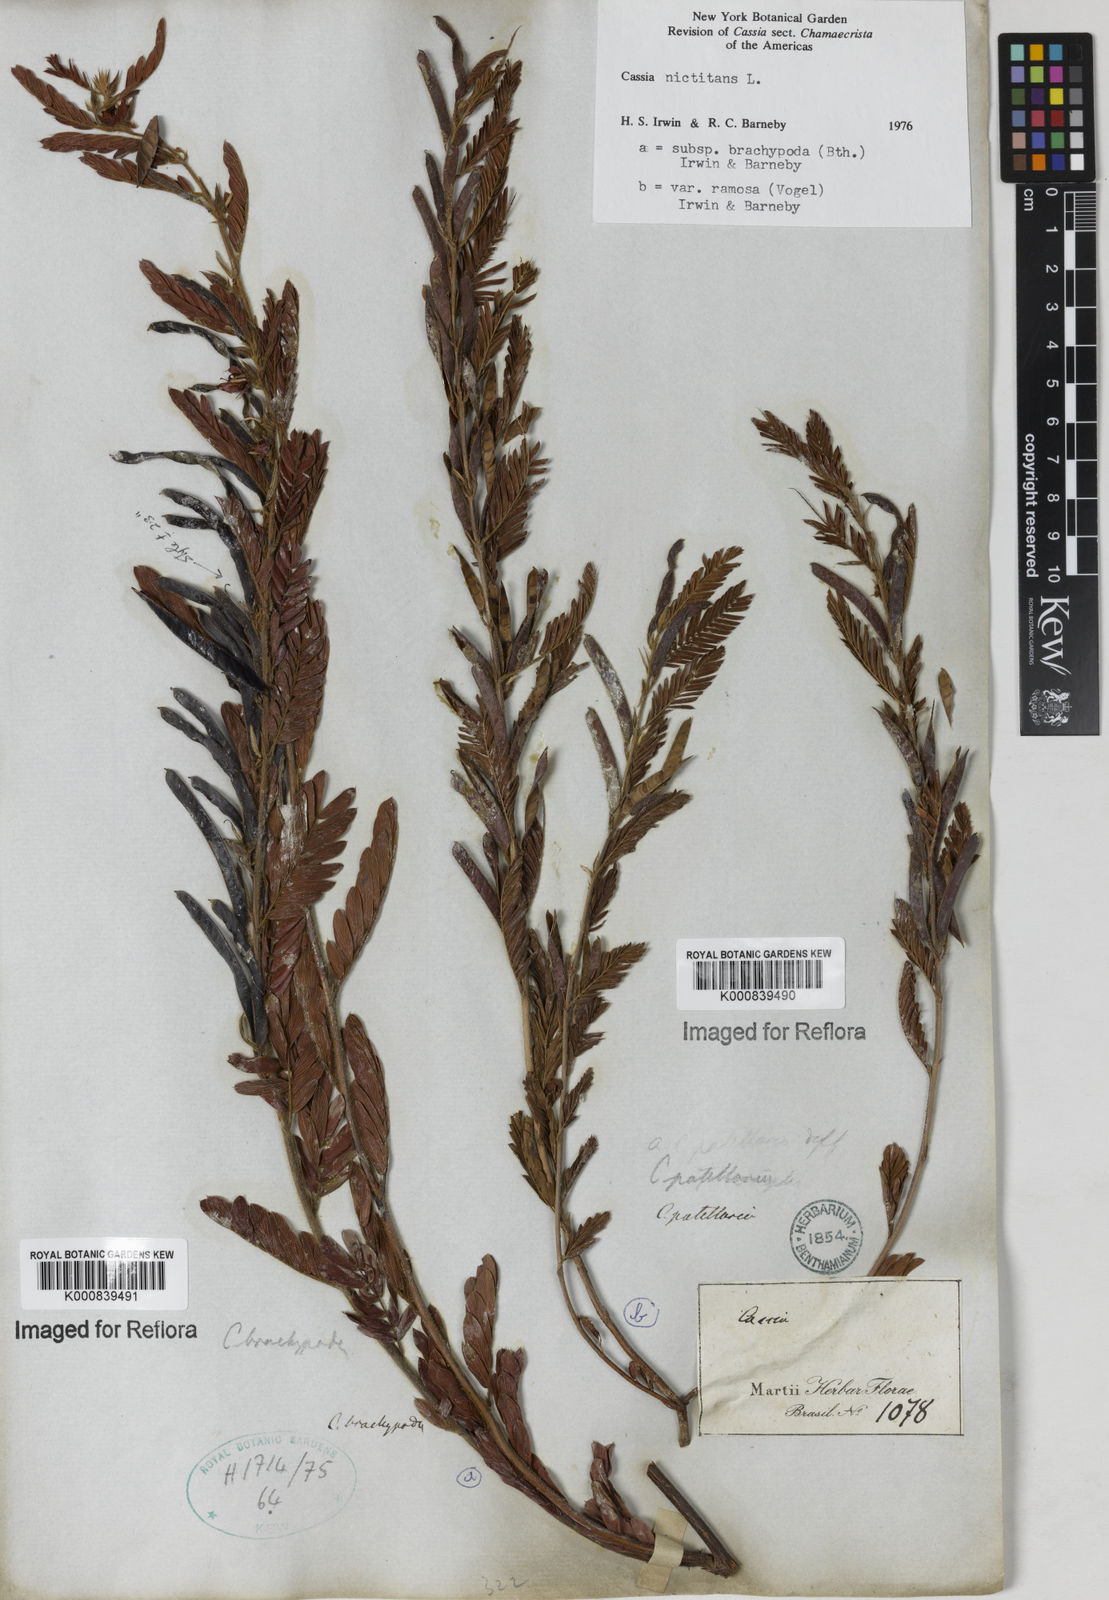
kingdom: Plantae
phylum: Tracheophyta
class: Magnoliopsida
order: Fabales
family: Fabaceae
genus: Chamaecrista
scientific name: Chamaecrista nictitans
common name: Sensitive cassia
